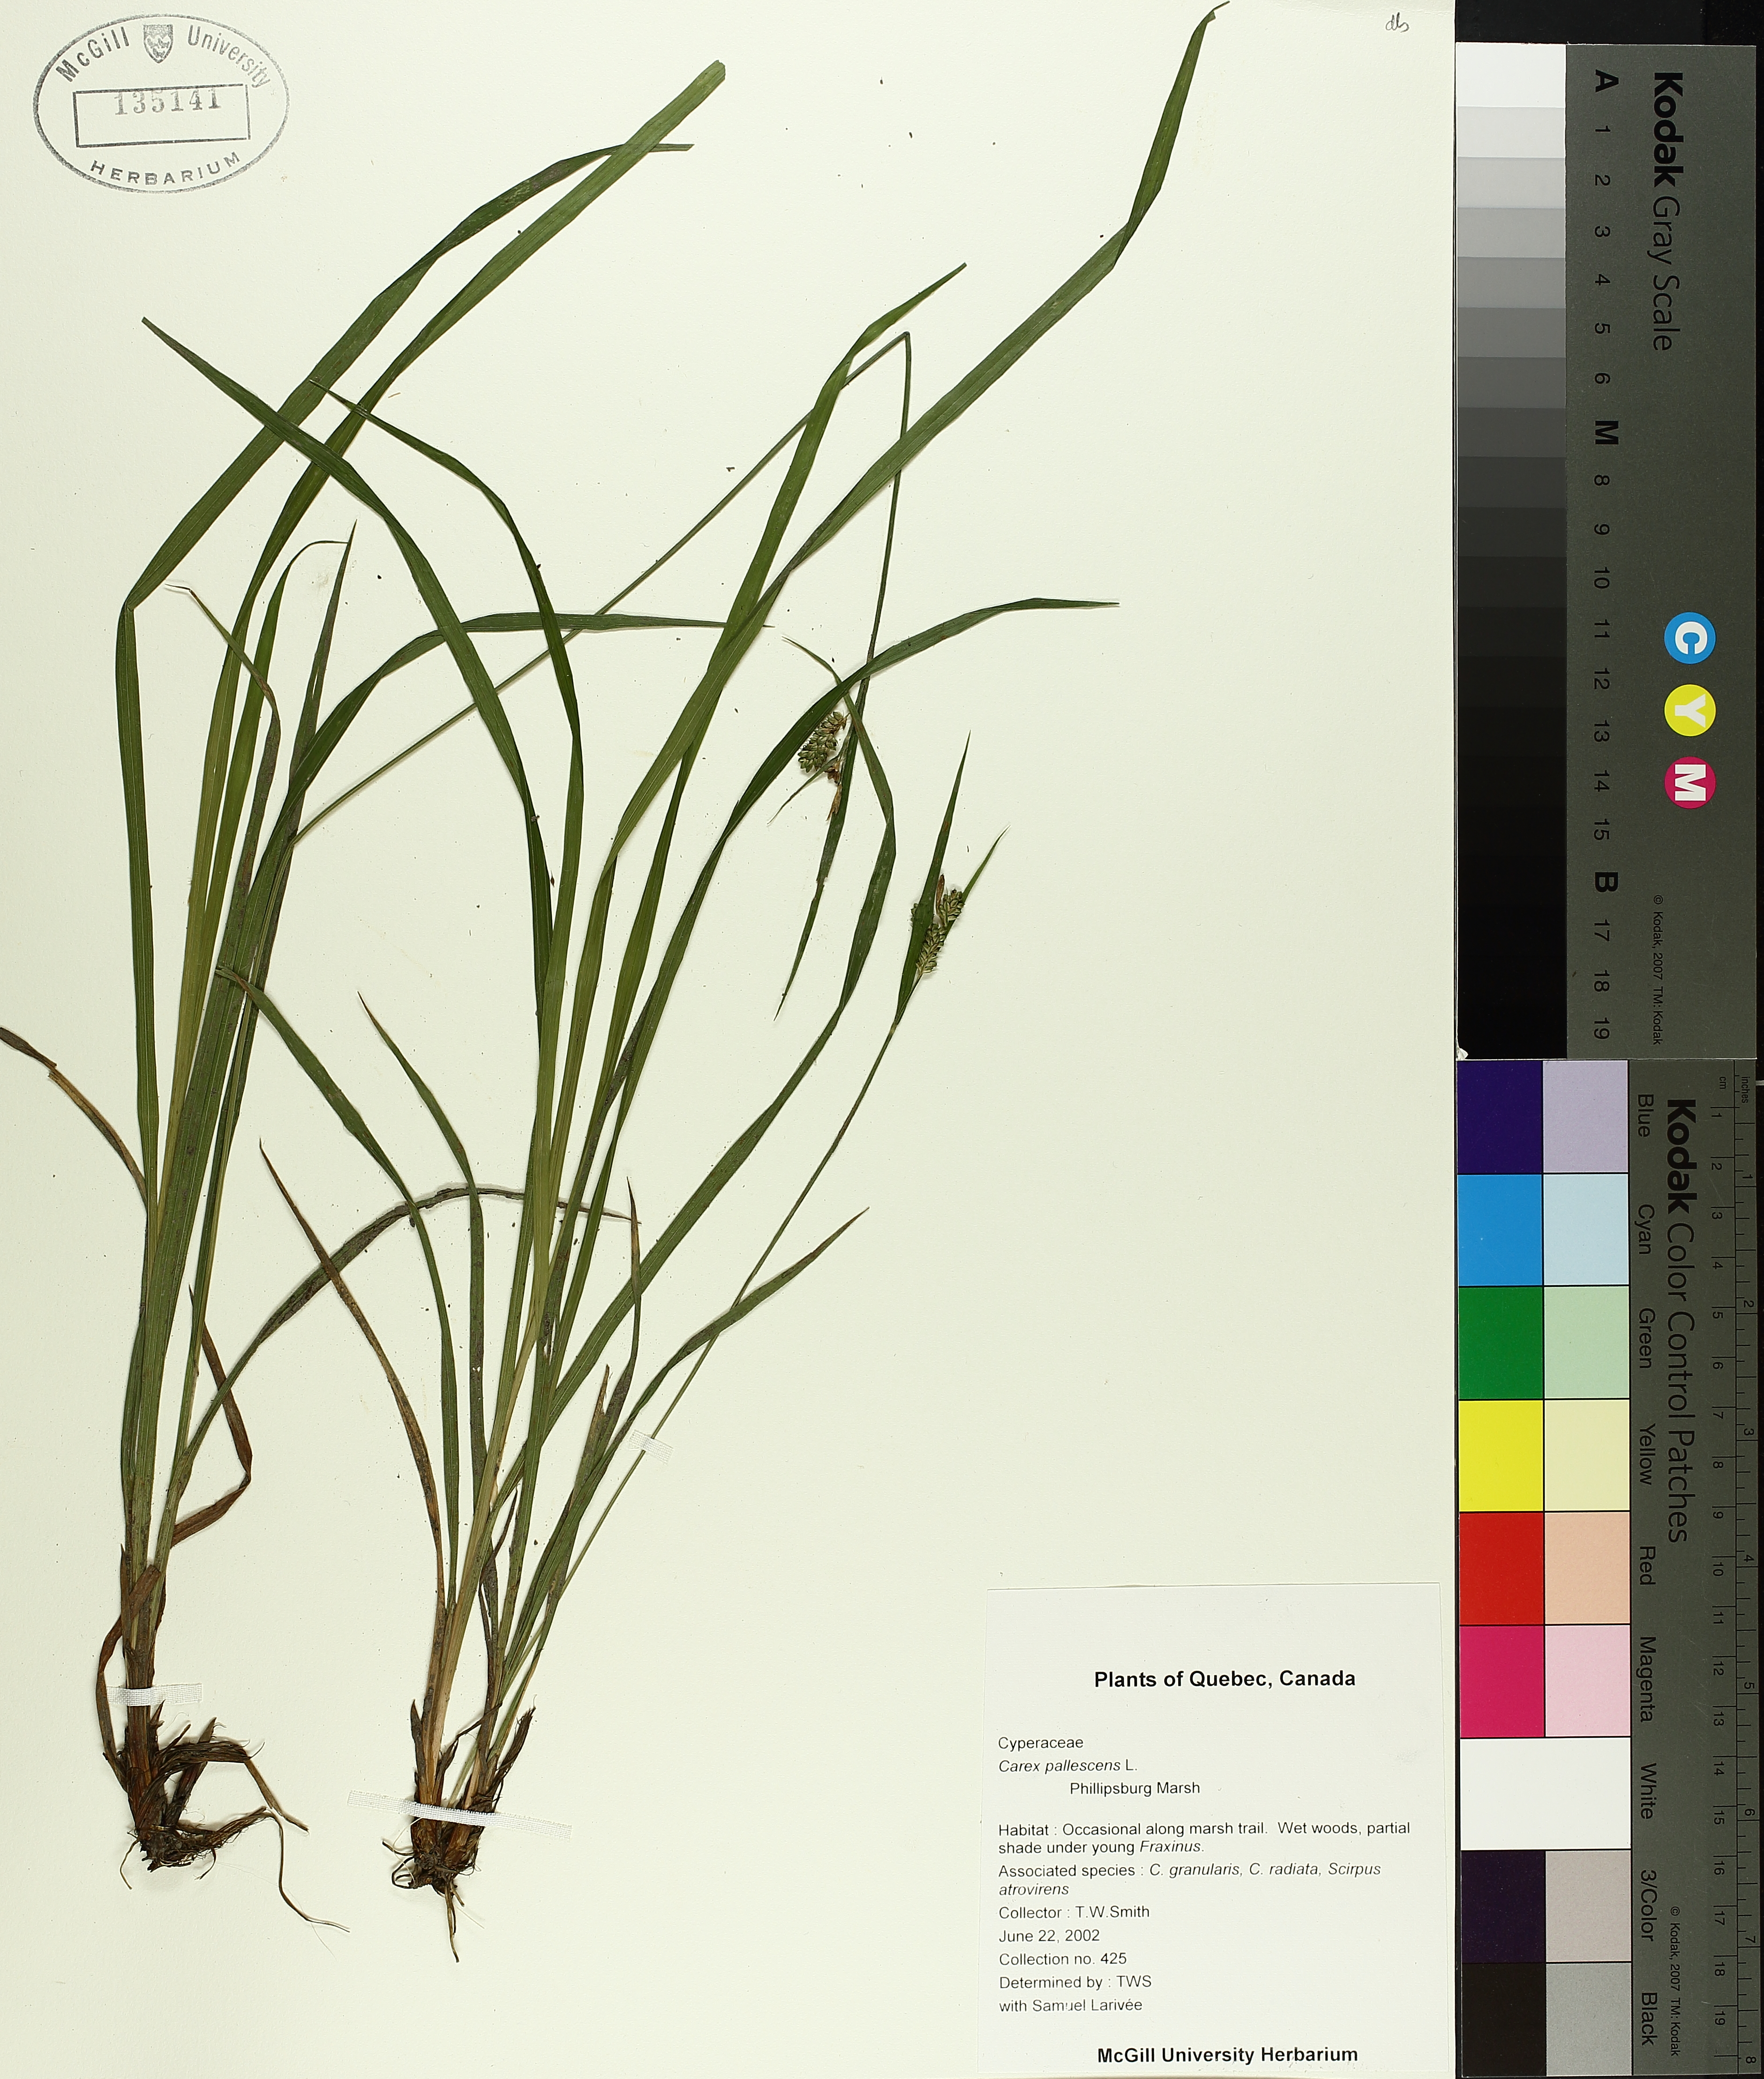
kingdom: Plantae
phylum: Tracheophyta
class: Liliopsida
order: Poales
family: Cyperaceae
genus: Carex
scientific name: Carex pallescens
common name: Pale sedge
